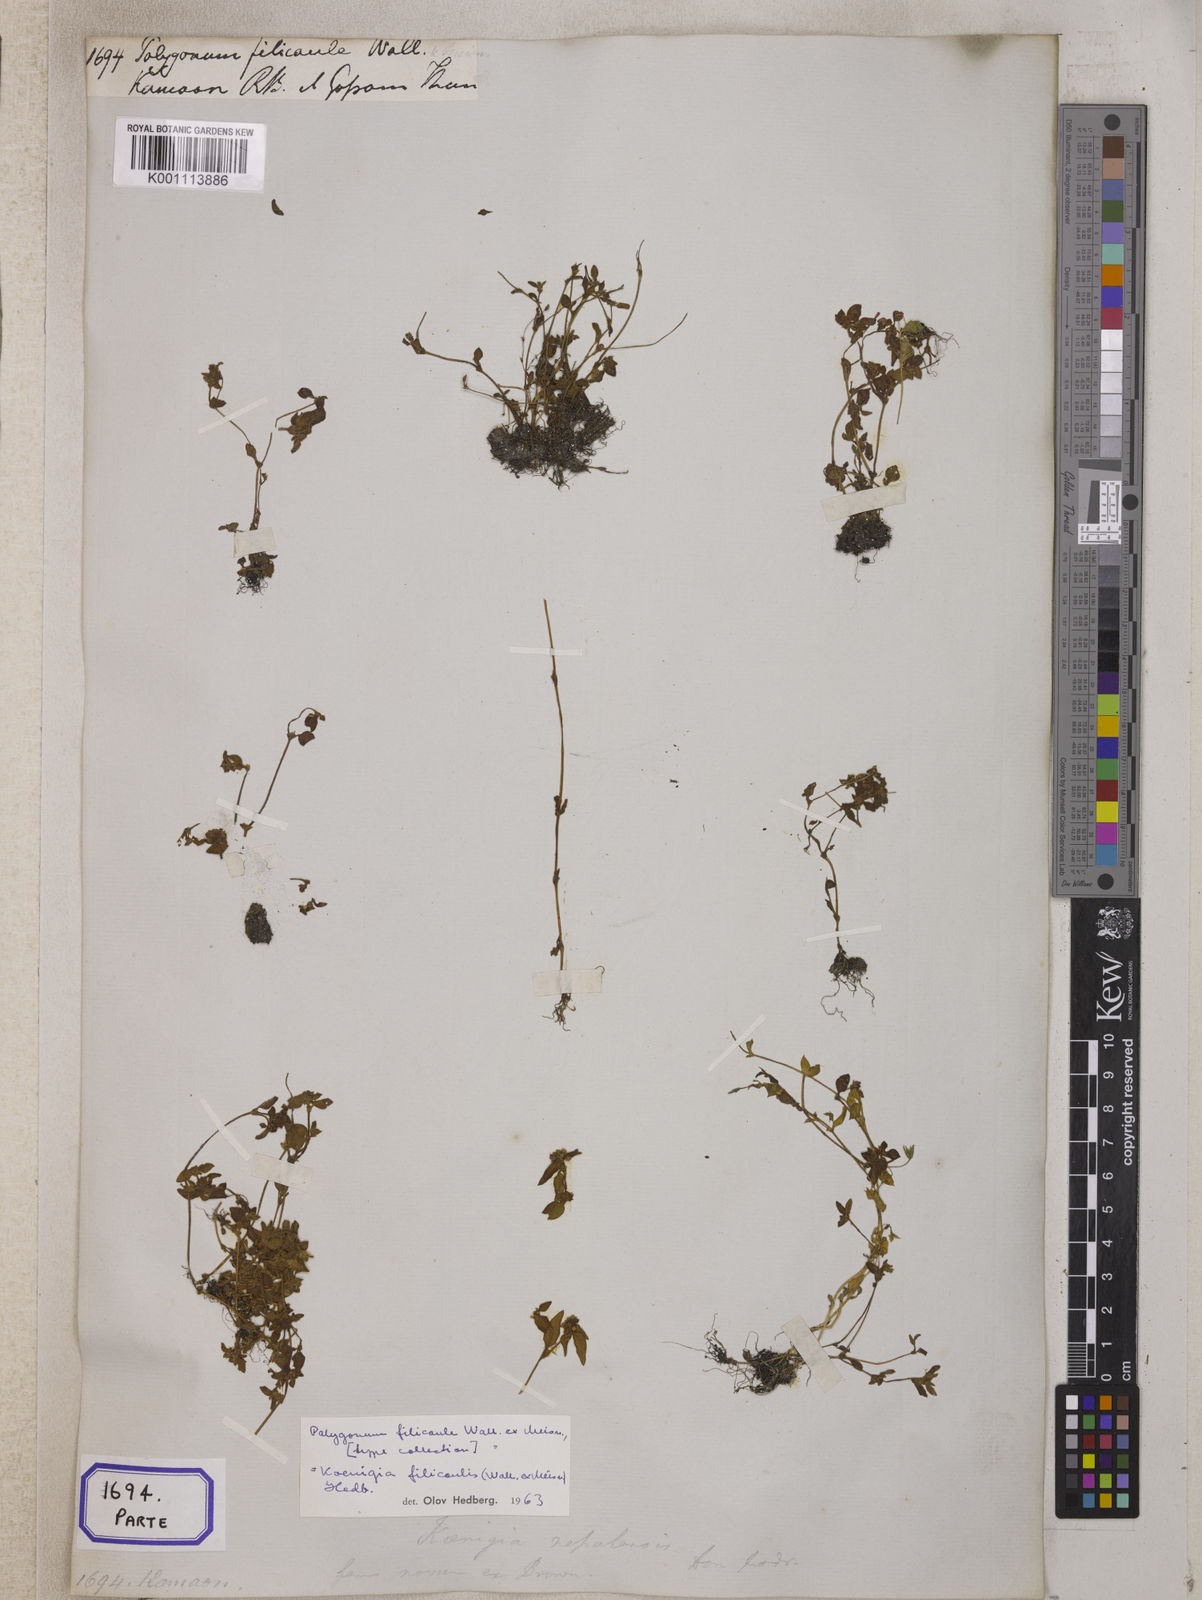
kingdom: Plantae
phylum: Tracheophyta
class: Magnoliopsida
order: Caryophyllales
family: Polygonaceae
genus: Polygonum
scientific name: Polygonum
